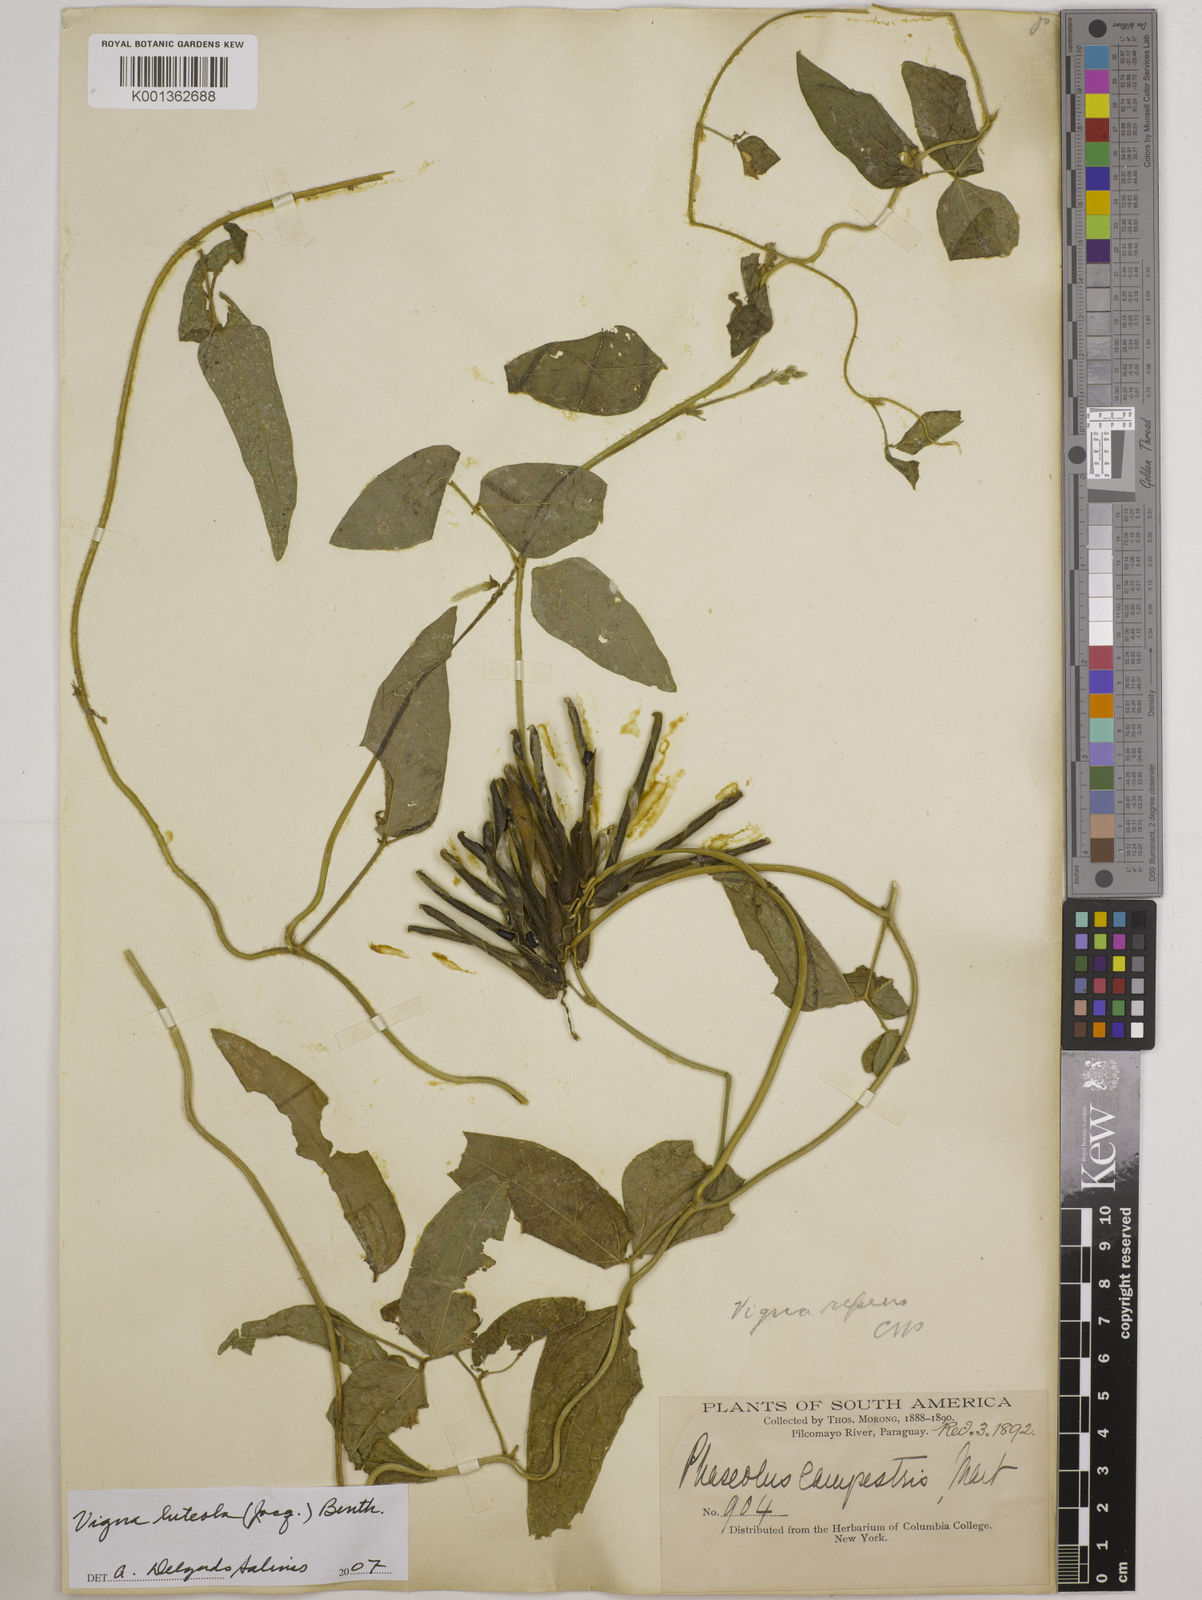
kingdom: Plantae
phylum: Tracheophyta
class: Magnoliopsida
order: Fabales
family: Fabaceae
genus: Vigna
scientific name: Vigna luteola
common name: Hairypod cowpea
